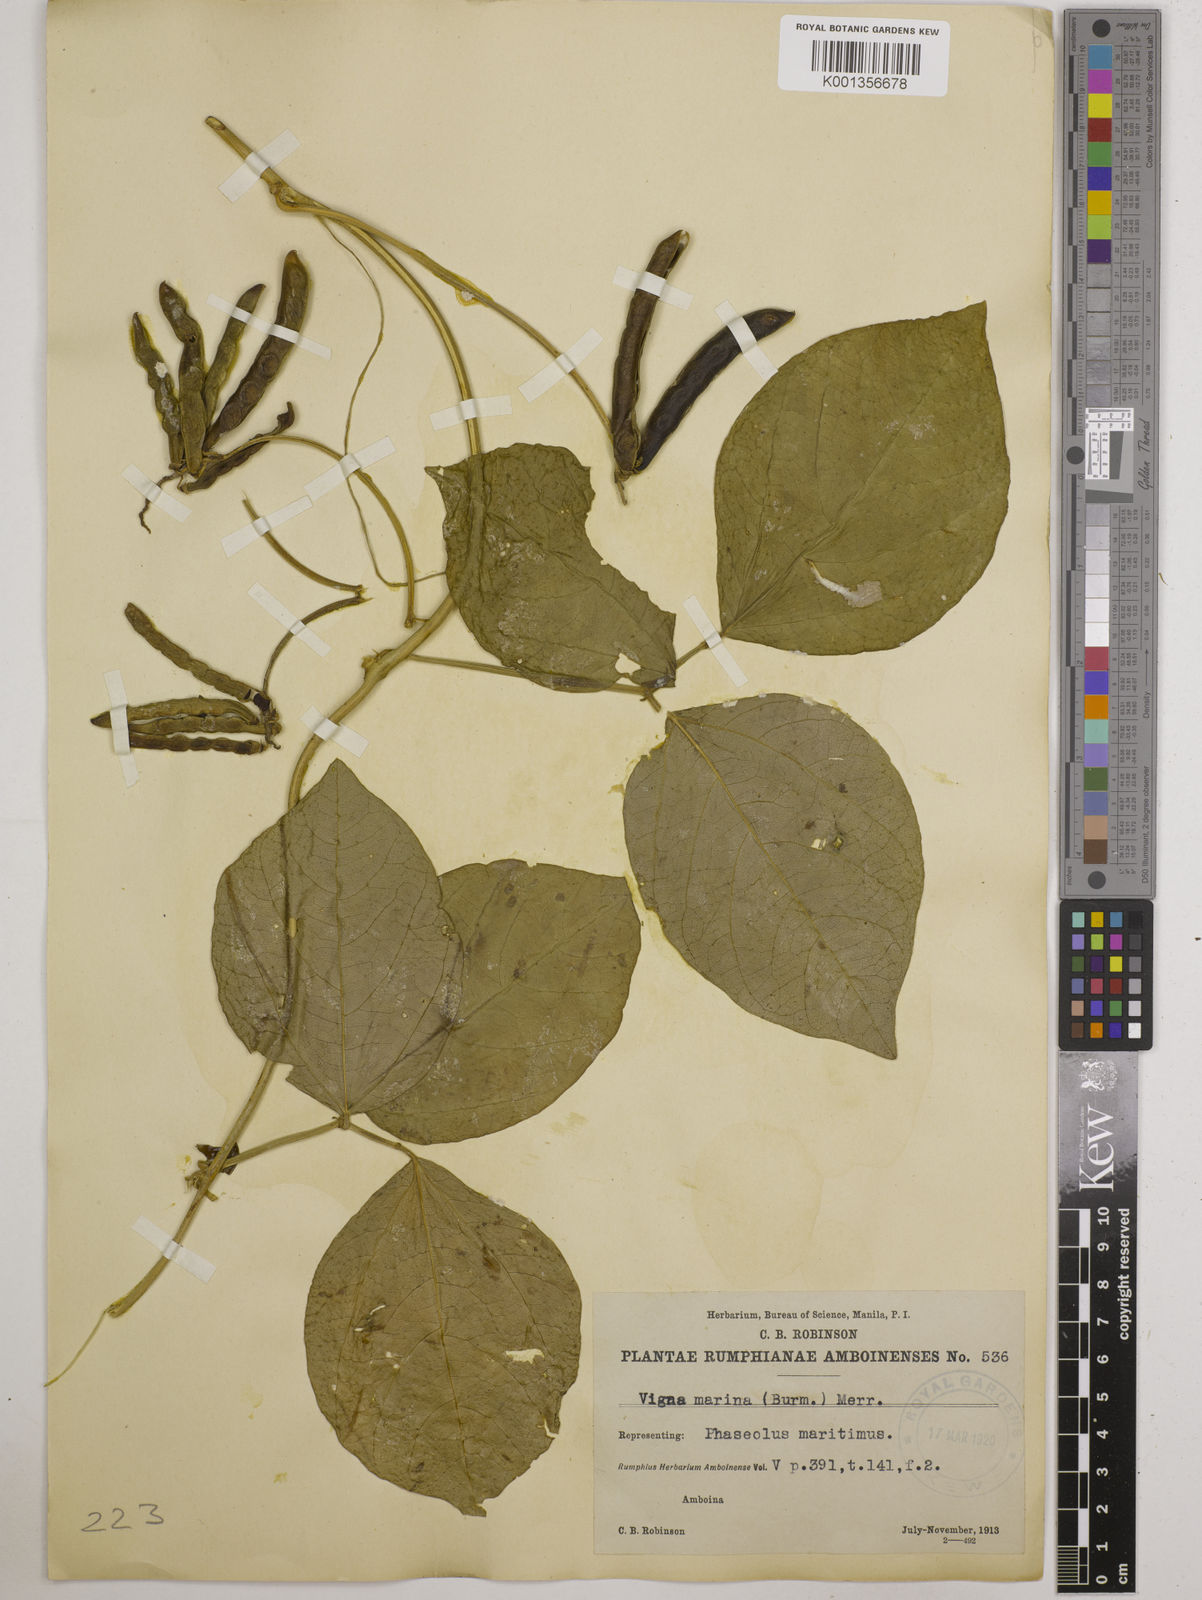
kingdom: Plantae
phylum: Tracheophyta
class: Magnoliopsida
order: Fabales
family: Fabaceae
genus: Vigna
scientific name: Vigna marina
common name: Dune-bean
